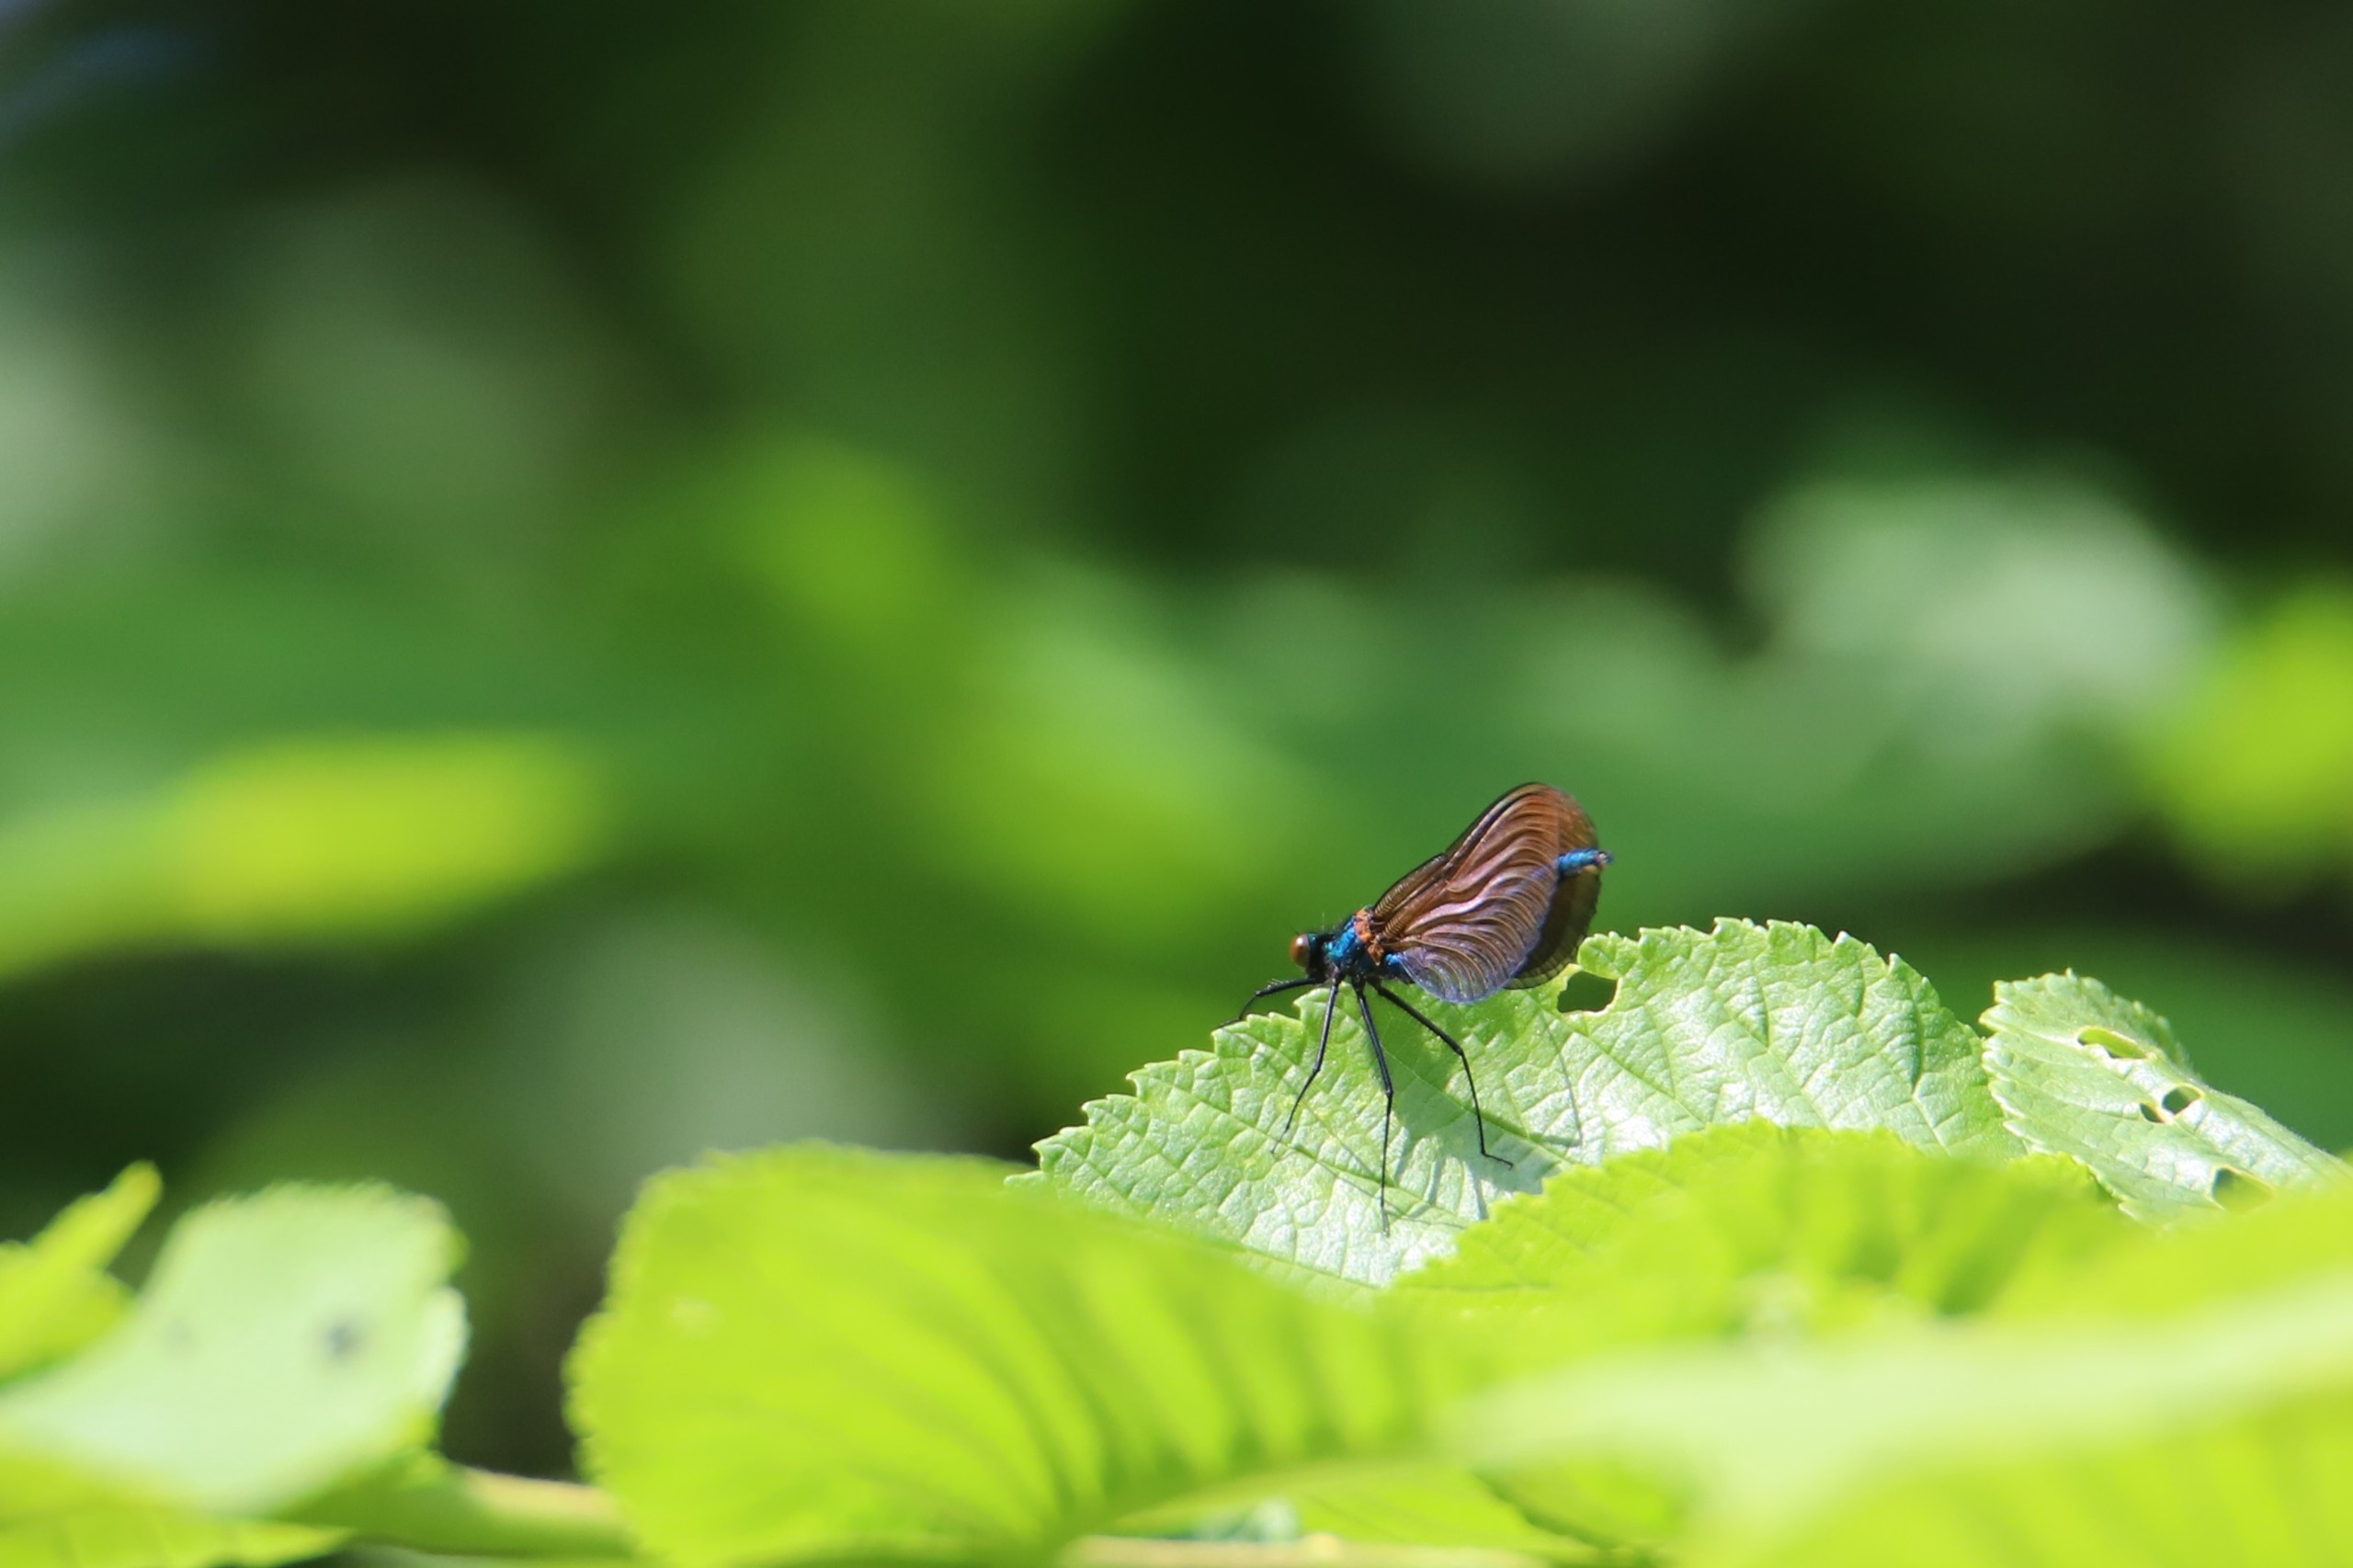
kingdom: Animalia
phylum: Arthropoda
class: Insecta
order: Odonata
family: Calopterygidae
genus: Calopteryx
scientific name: Calopteryx virgo
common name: Blåvinget pragtvandnymfe
